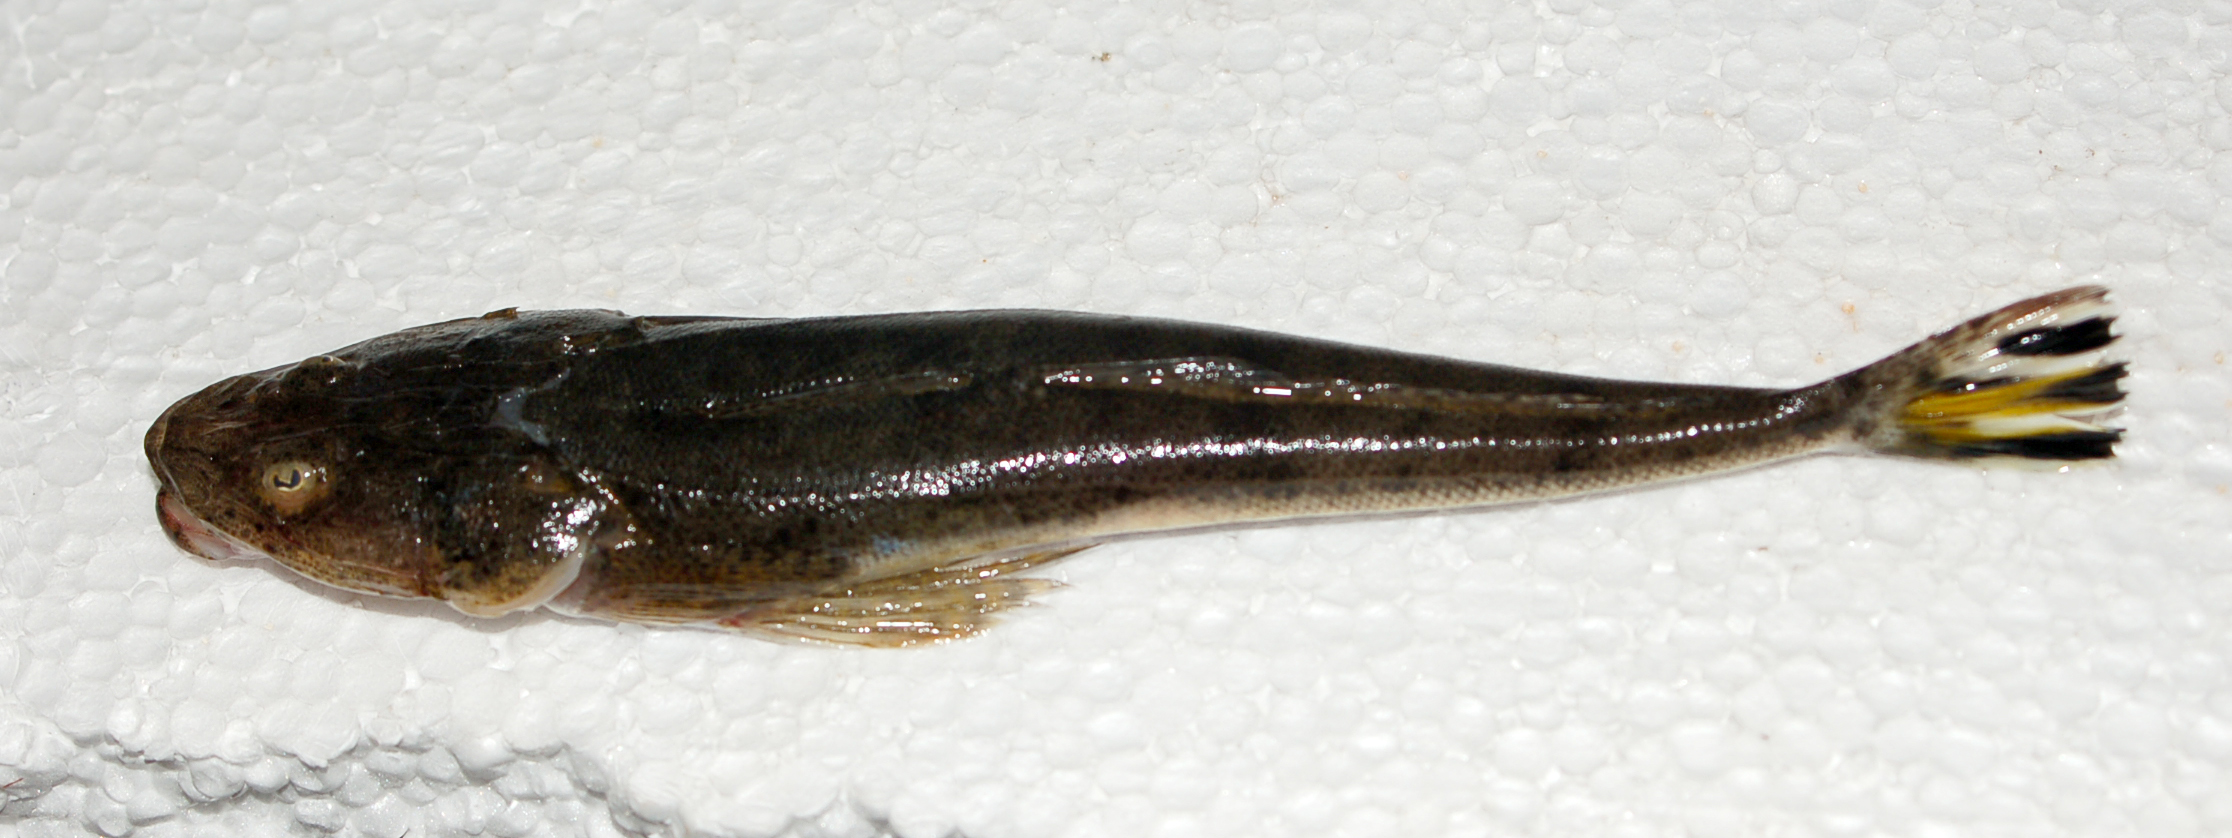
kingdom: Animalia
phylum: Chordata
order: Scorpaeniformes
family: Platycephalidae
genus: Platycephalus
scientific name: Platycephalus indicus
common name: Bartail flathead
